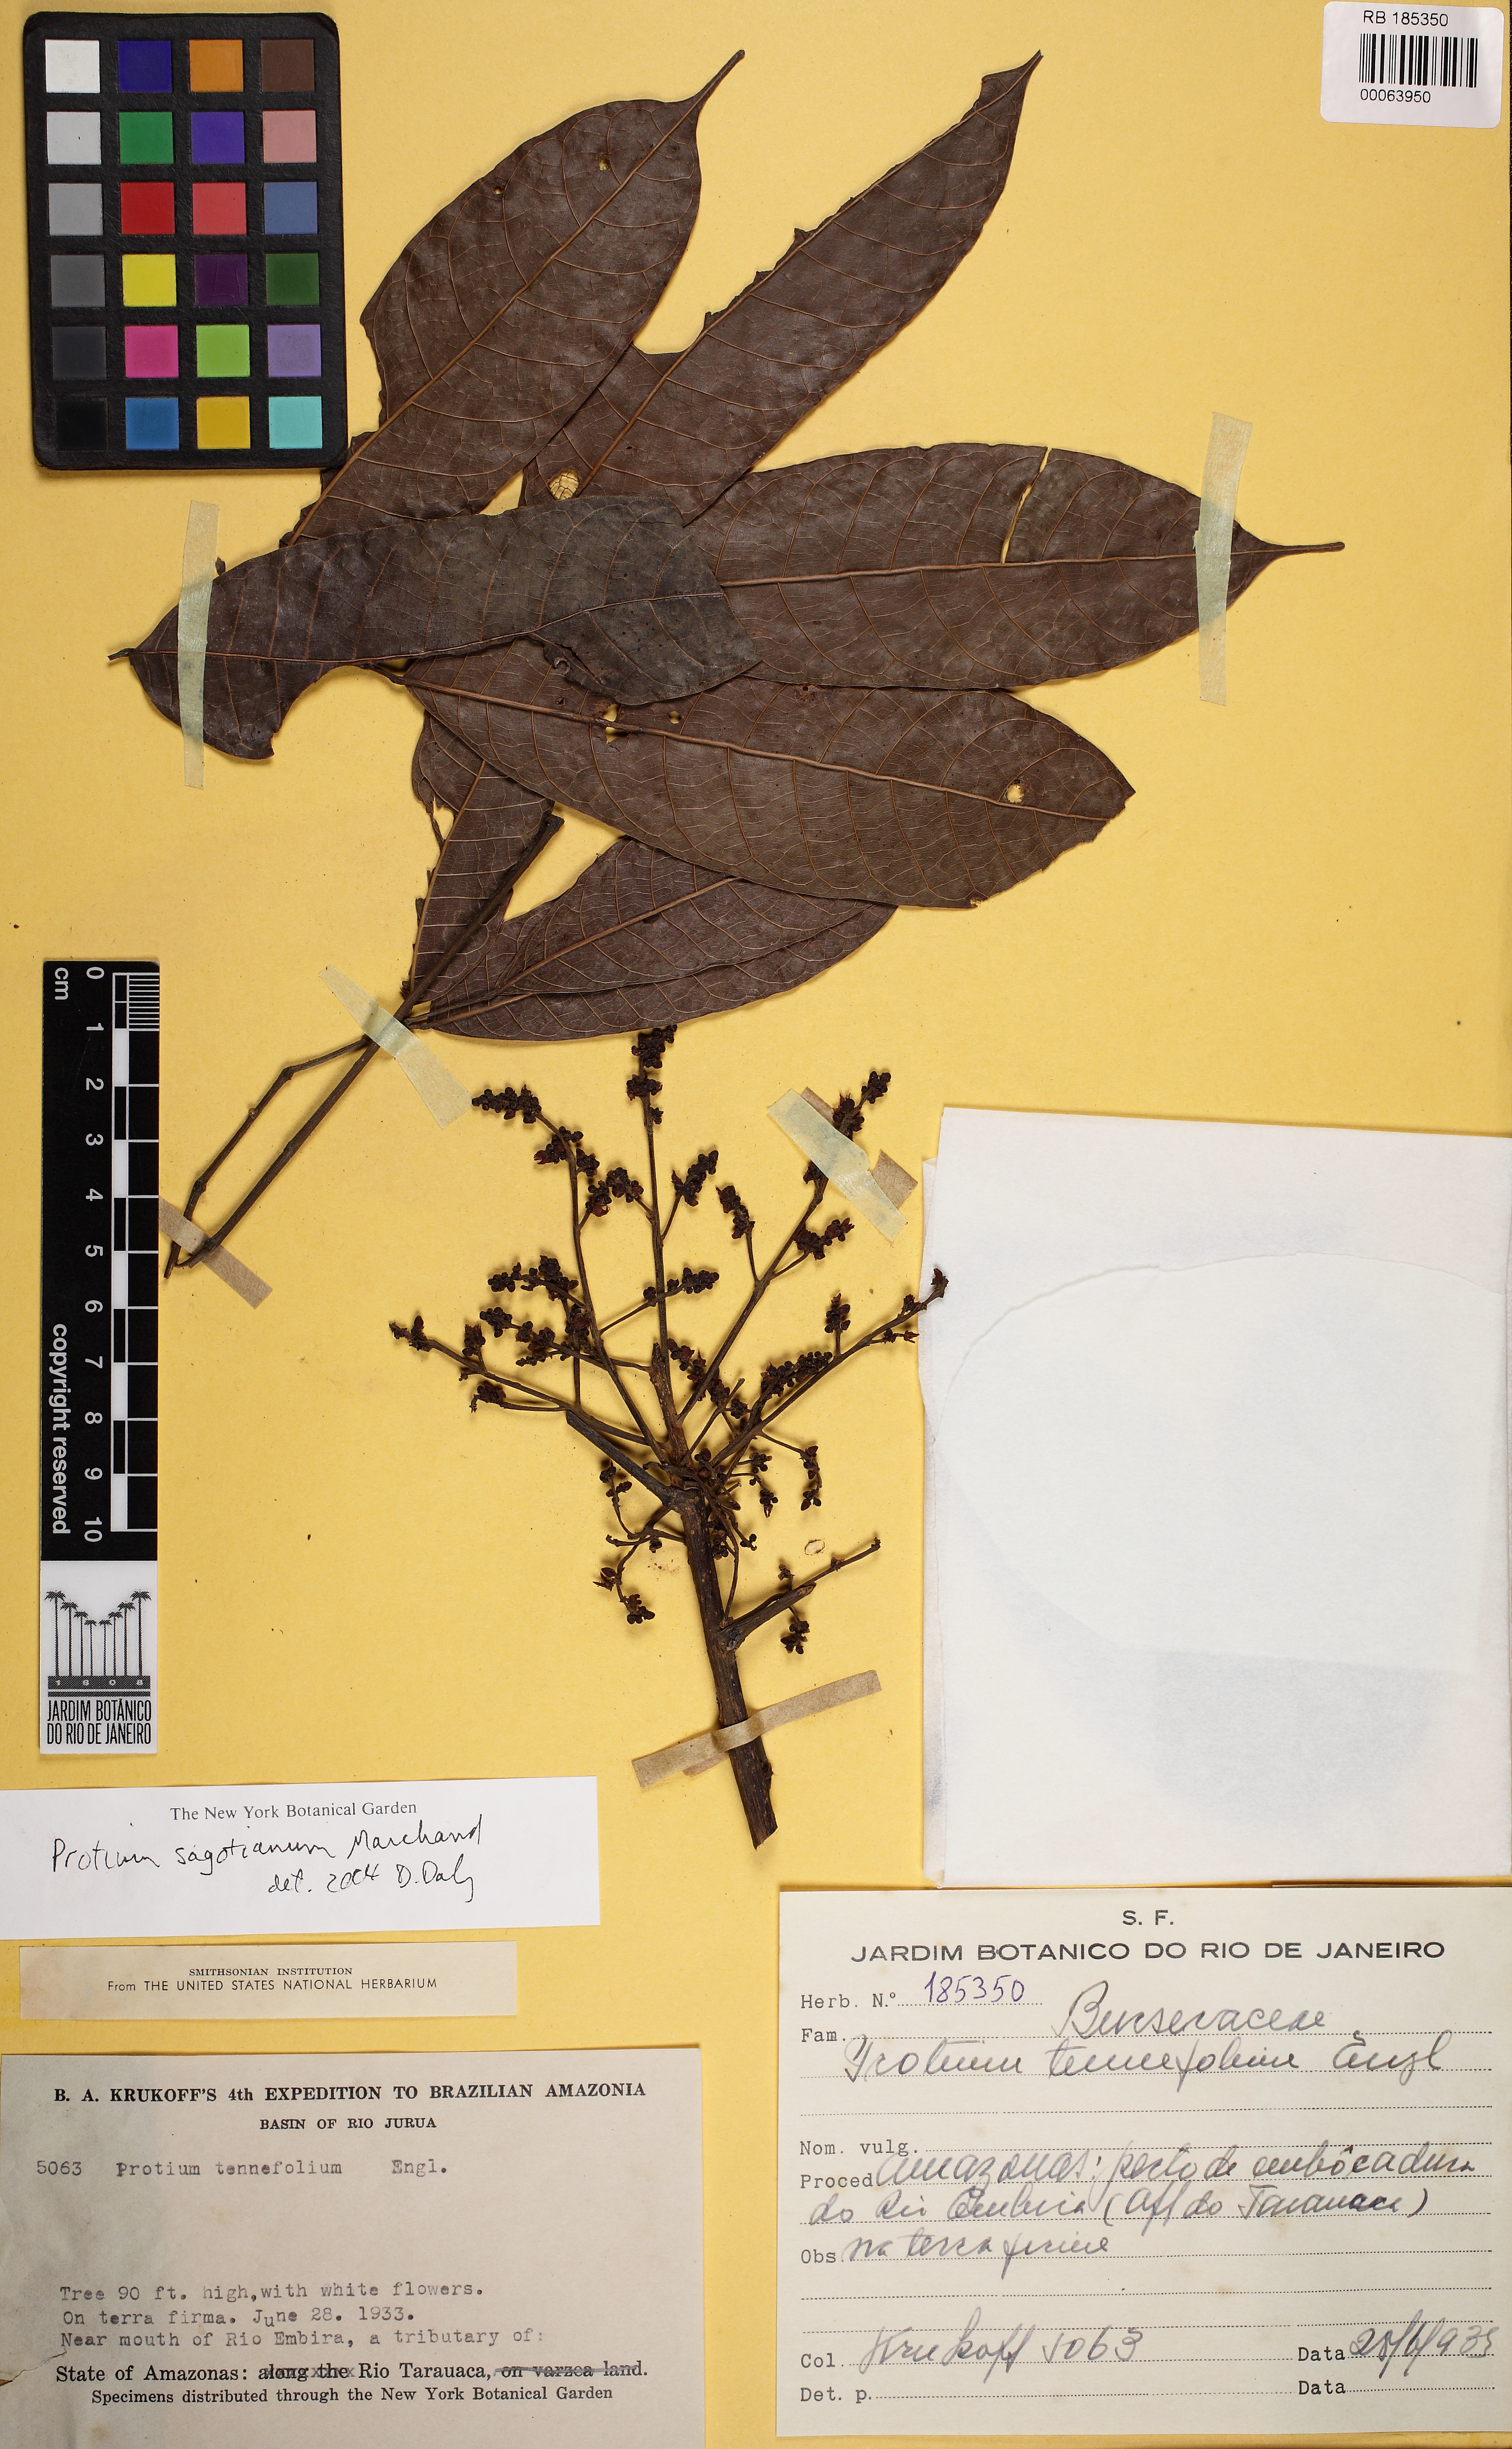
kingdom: Plantae
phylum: Tracheophyta
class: Magnoliopsida
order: Sapindales
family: Burseraceae
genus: Protium
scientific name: Protium sagotianum
